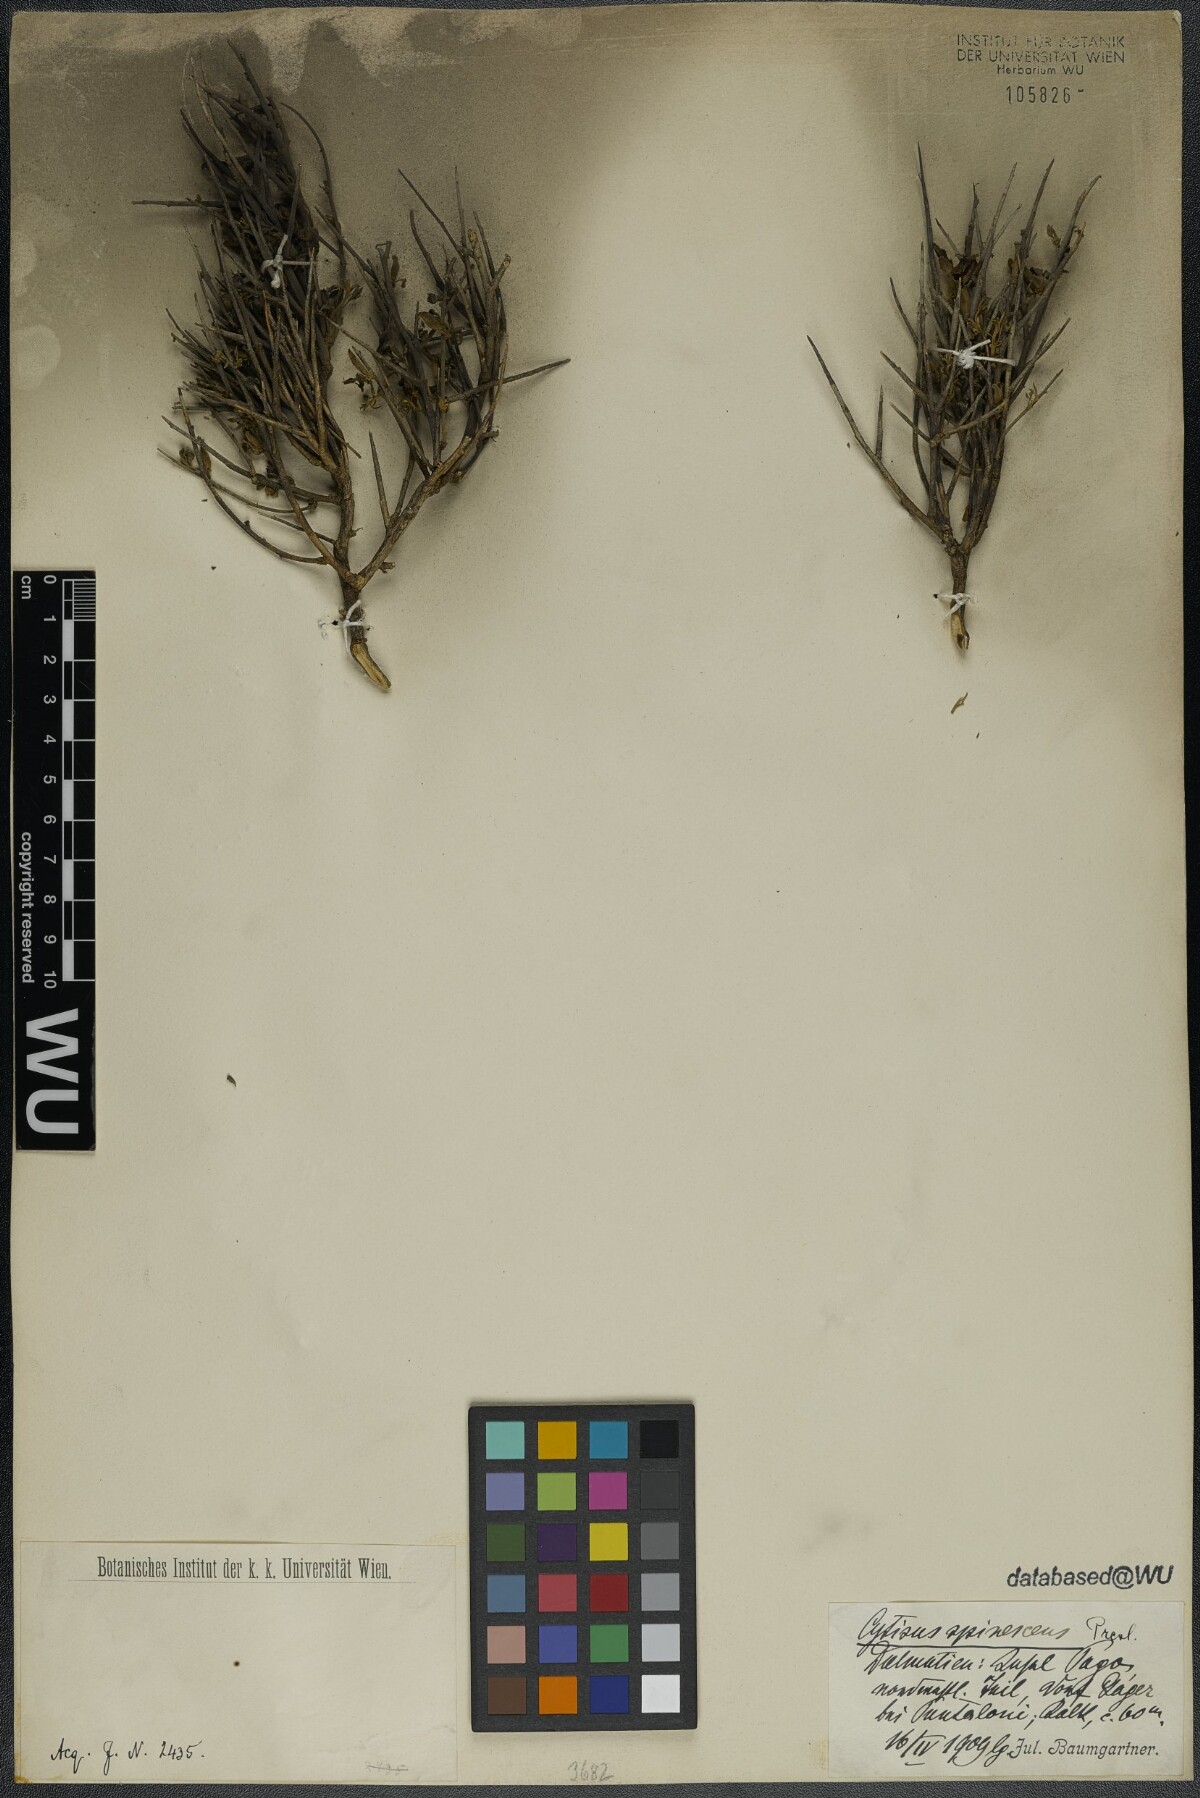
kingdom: Plantae
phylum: Tracheophyta
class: Magnoliopsida
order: Fabales
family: Fabaceae
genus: Chamaecytisus
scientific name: Chamaecytisus spinescens
